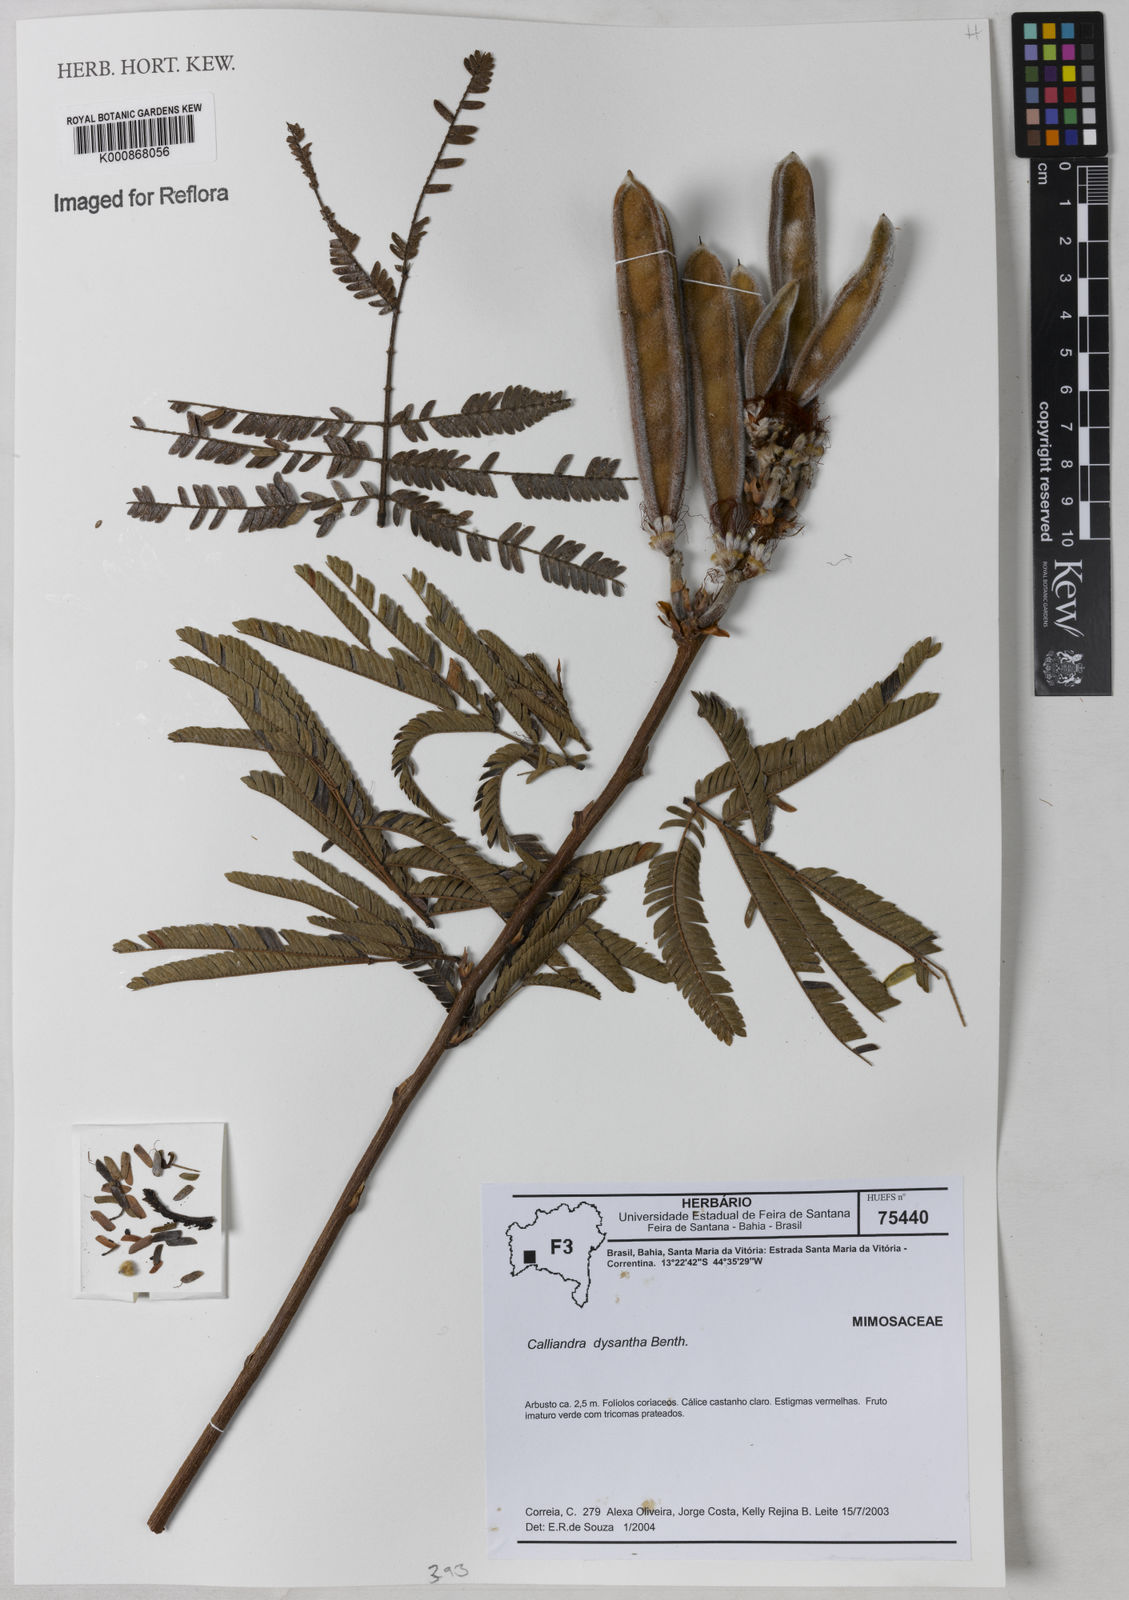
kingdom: Plantae
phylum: Tracheophyta
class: Magnoliopsida
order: Fabales
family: Fabaceae
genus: Calliandra
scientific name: Calliandra dysantha
